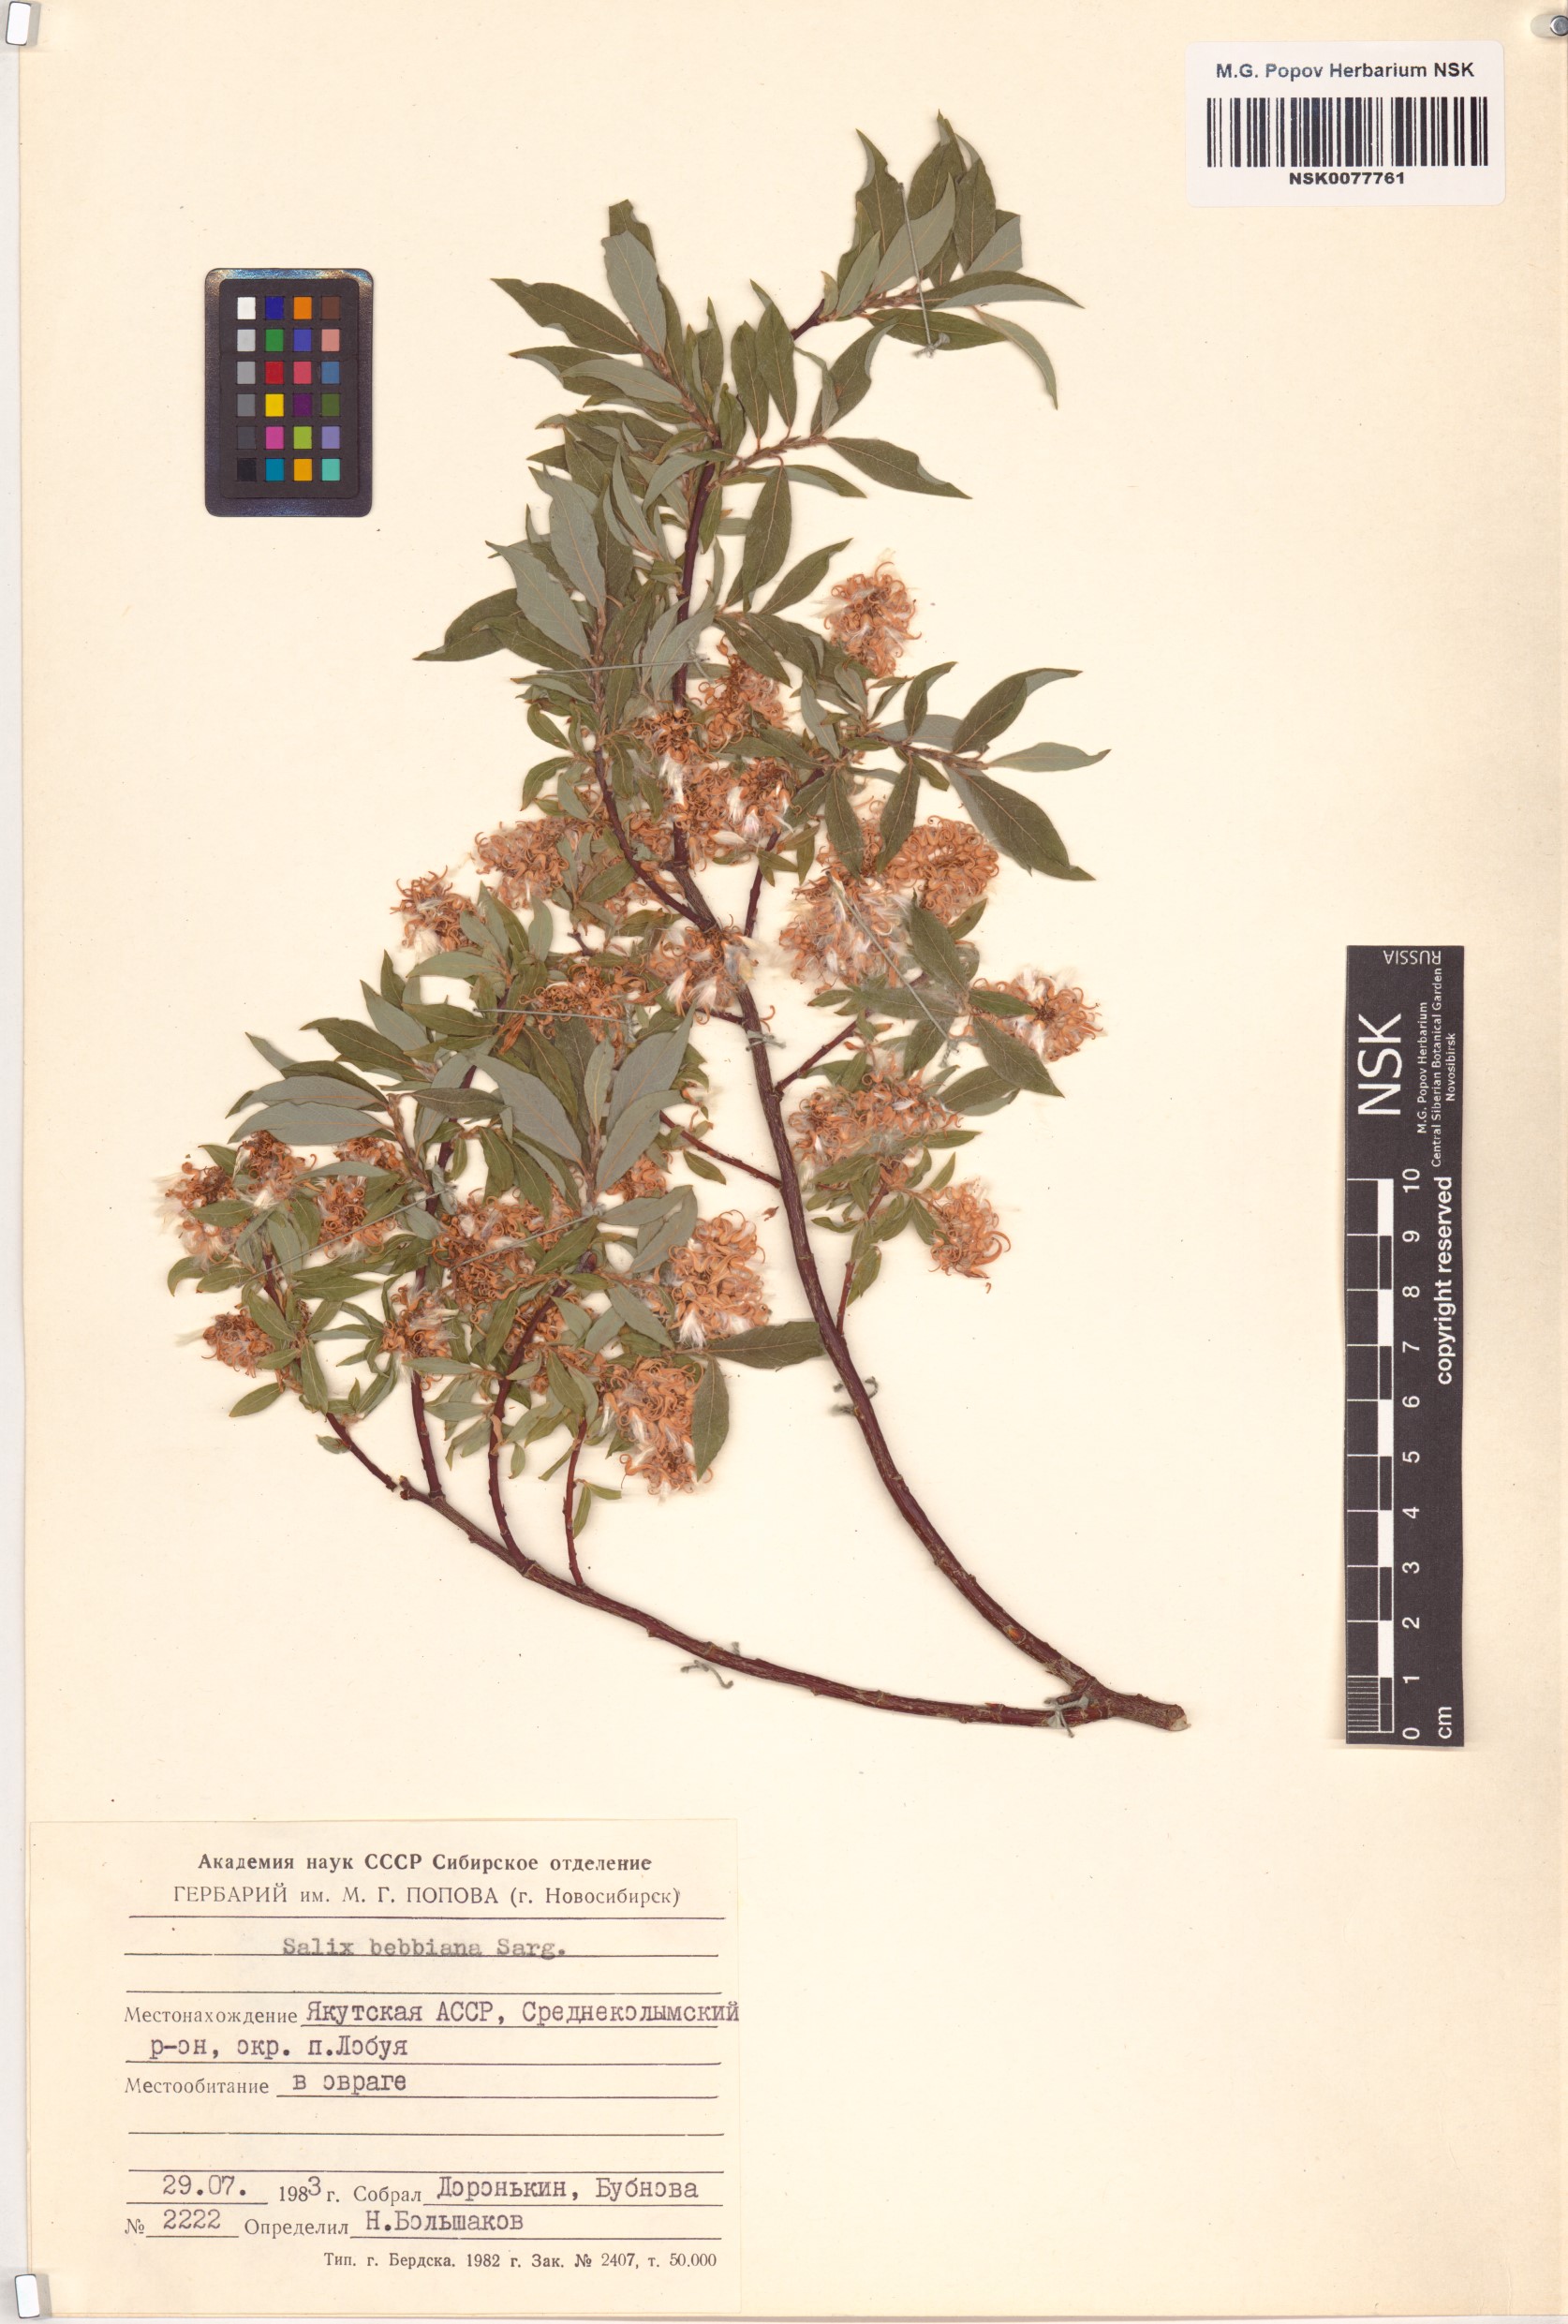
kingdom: Plantae
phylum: Tracheophyta
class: Magnoliopsida
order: Malpighiales
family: Salicaceae
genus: Salix
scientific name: Salix bebbiana
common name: Bebb's willow
